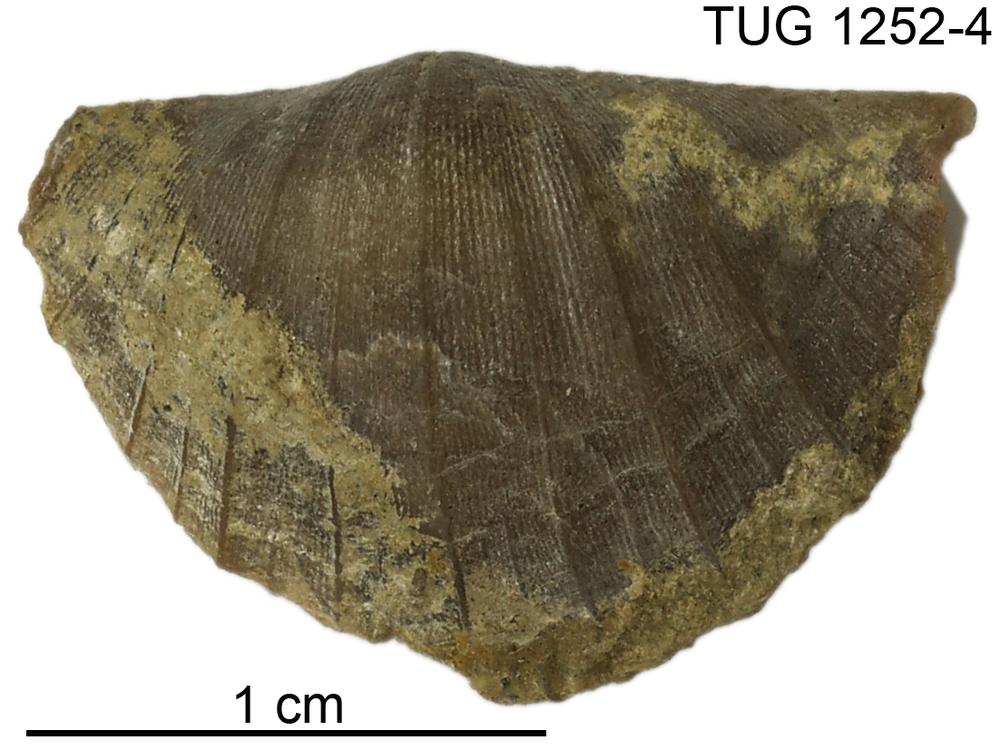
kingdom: Animalia
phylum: Brachiopoda
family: Oldhaminidae
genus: Eoplectodonta
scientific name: Eoplectodonta
